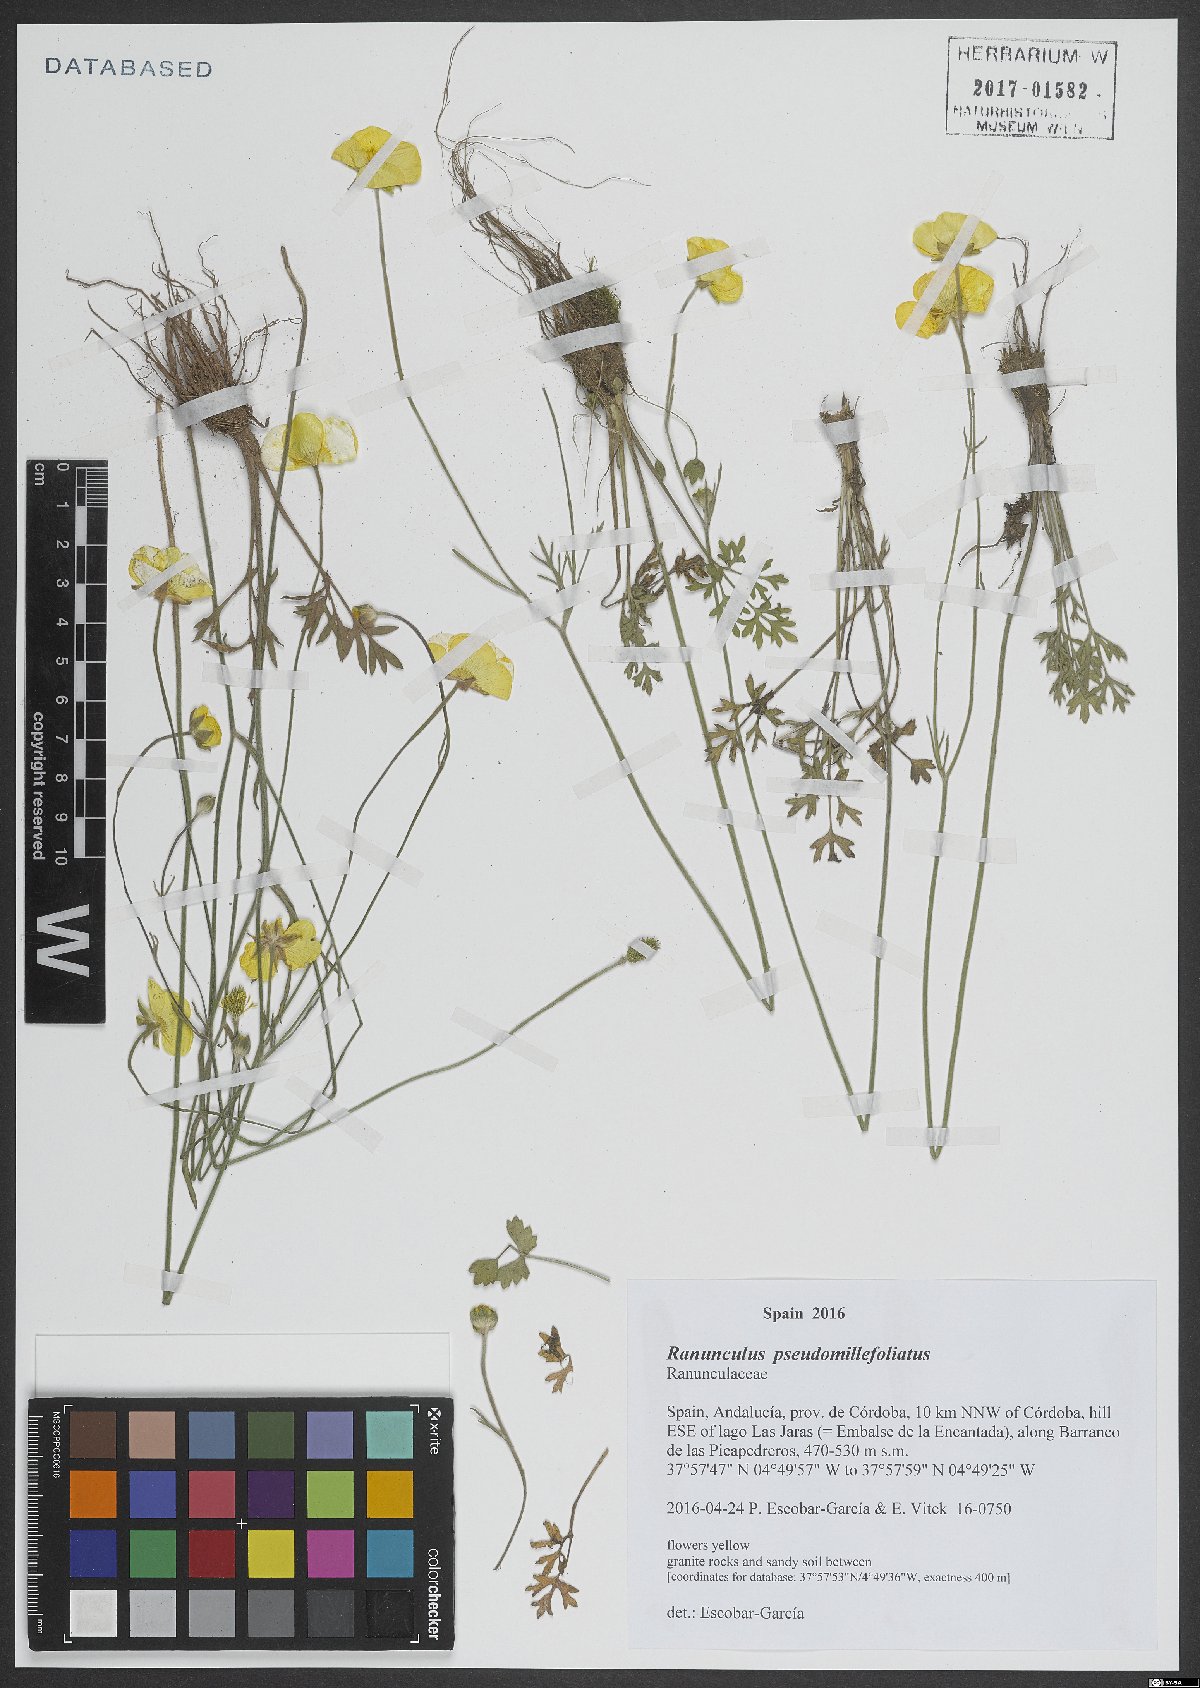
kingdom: Plantae
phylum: Tracheophyta
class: Magnoliopsida
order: Ranunculales
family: Ranunculaceae
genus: Ranunculus
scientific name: Ranunculus pseudomillefoliatus
